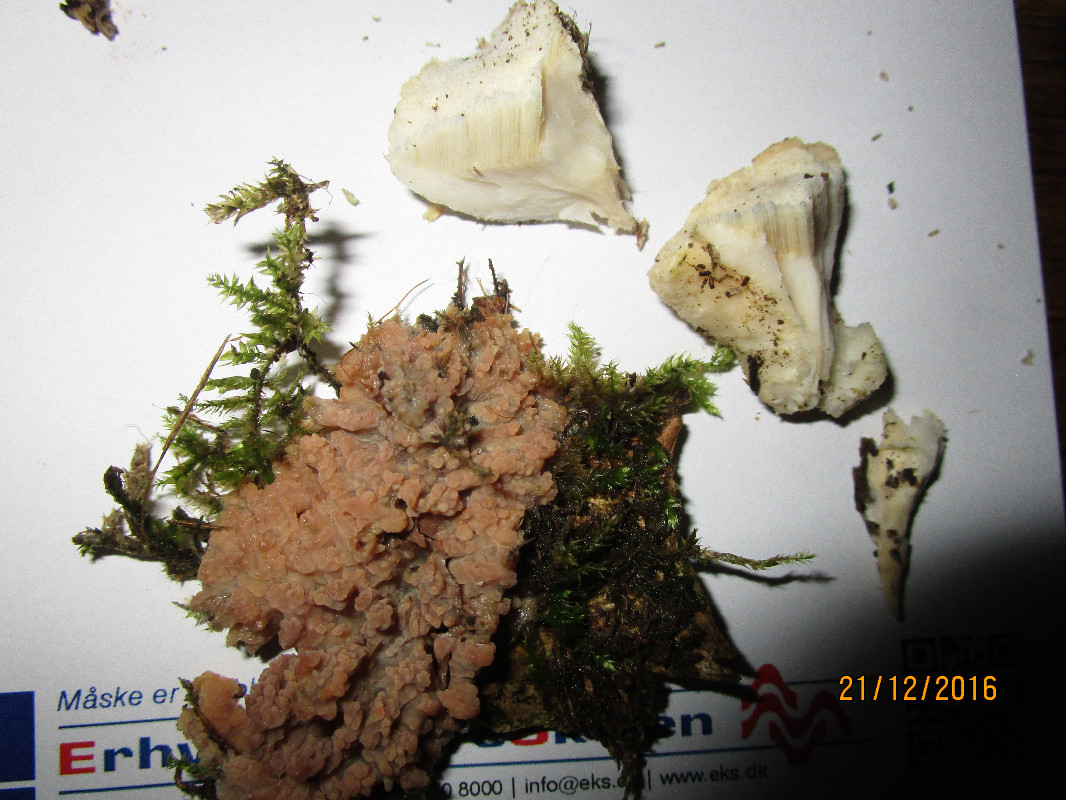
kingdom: Fungi
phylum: Basidiomycota
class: Agaricomycetes
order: Polyporales
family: Incrustoporiaceae
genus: Tyromyces
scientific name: Tyromyces lacteus
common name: mælkehvid kødporesvamp
